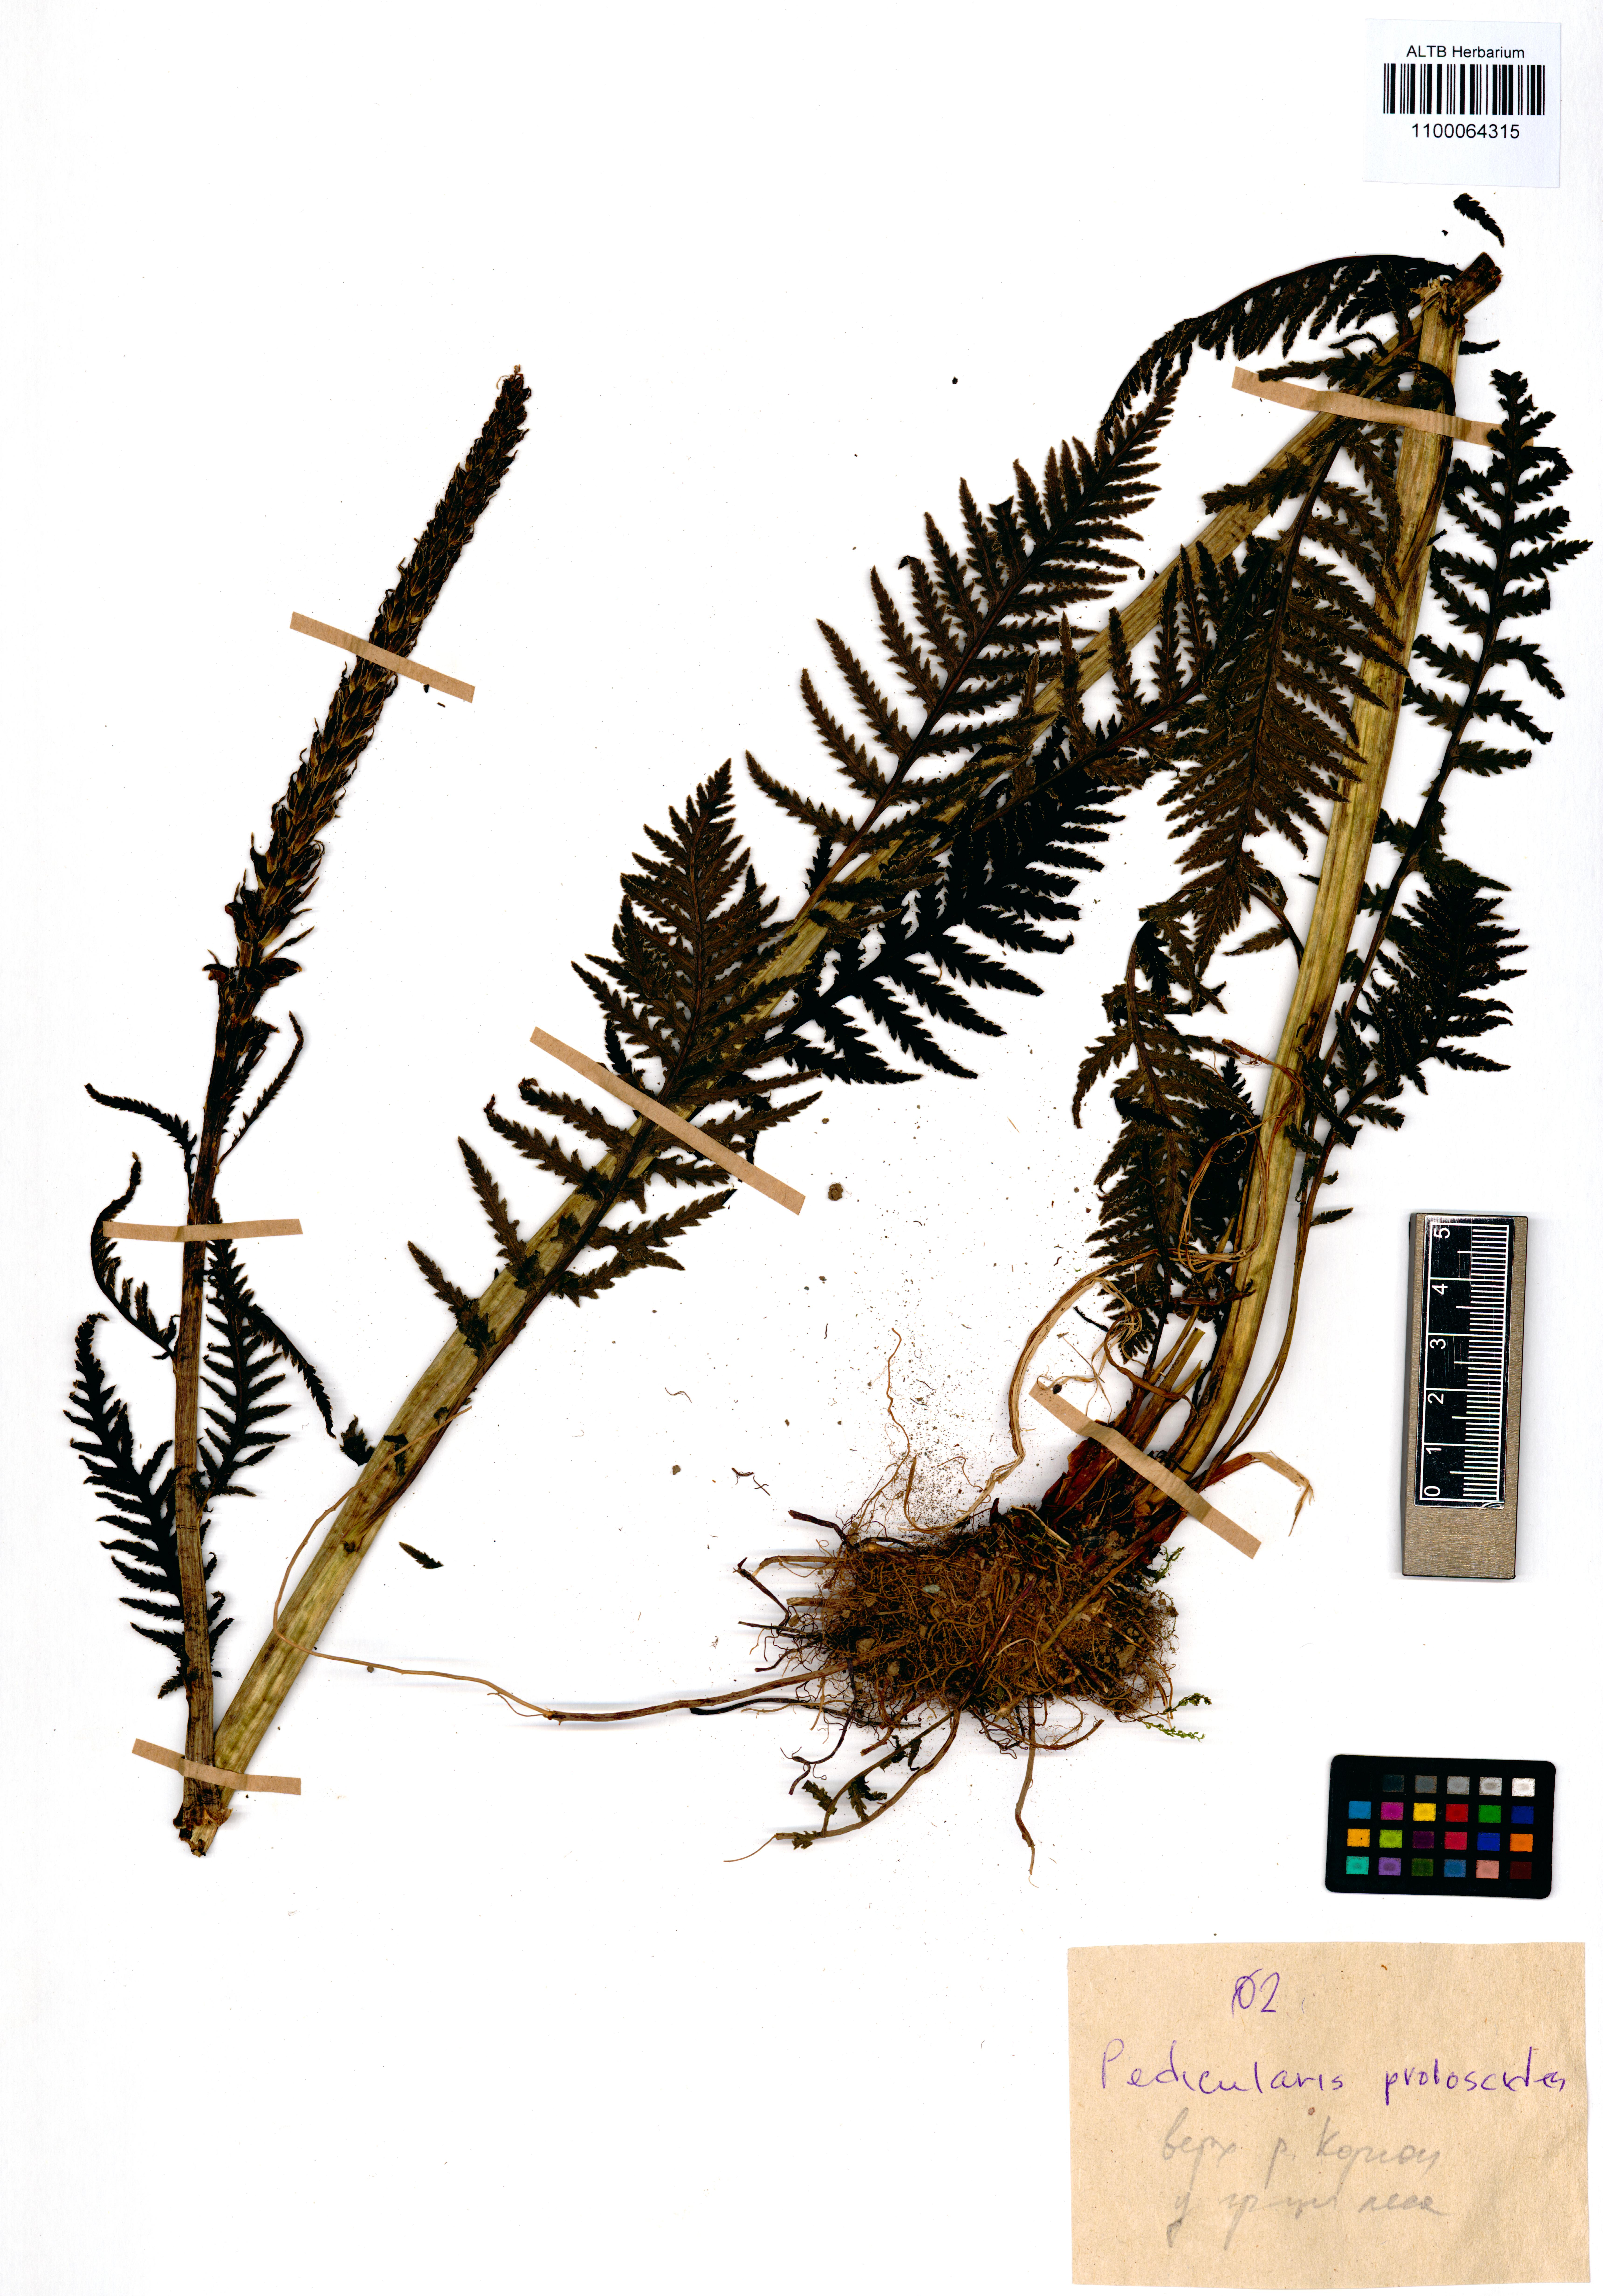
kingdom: Plantae
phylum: Tracheophyta
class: Magnoliopsida
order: Lamiales
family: Orobanchaceae
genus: Pedicularis
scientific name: Pedicularis cenisia
